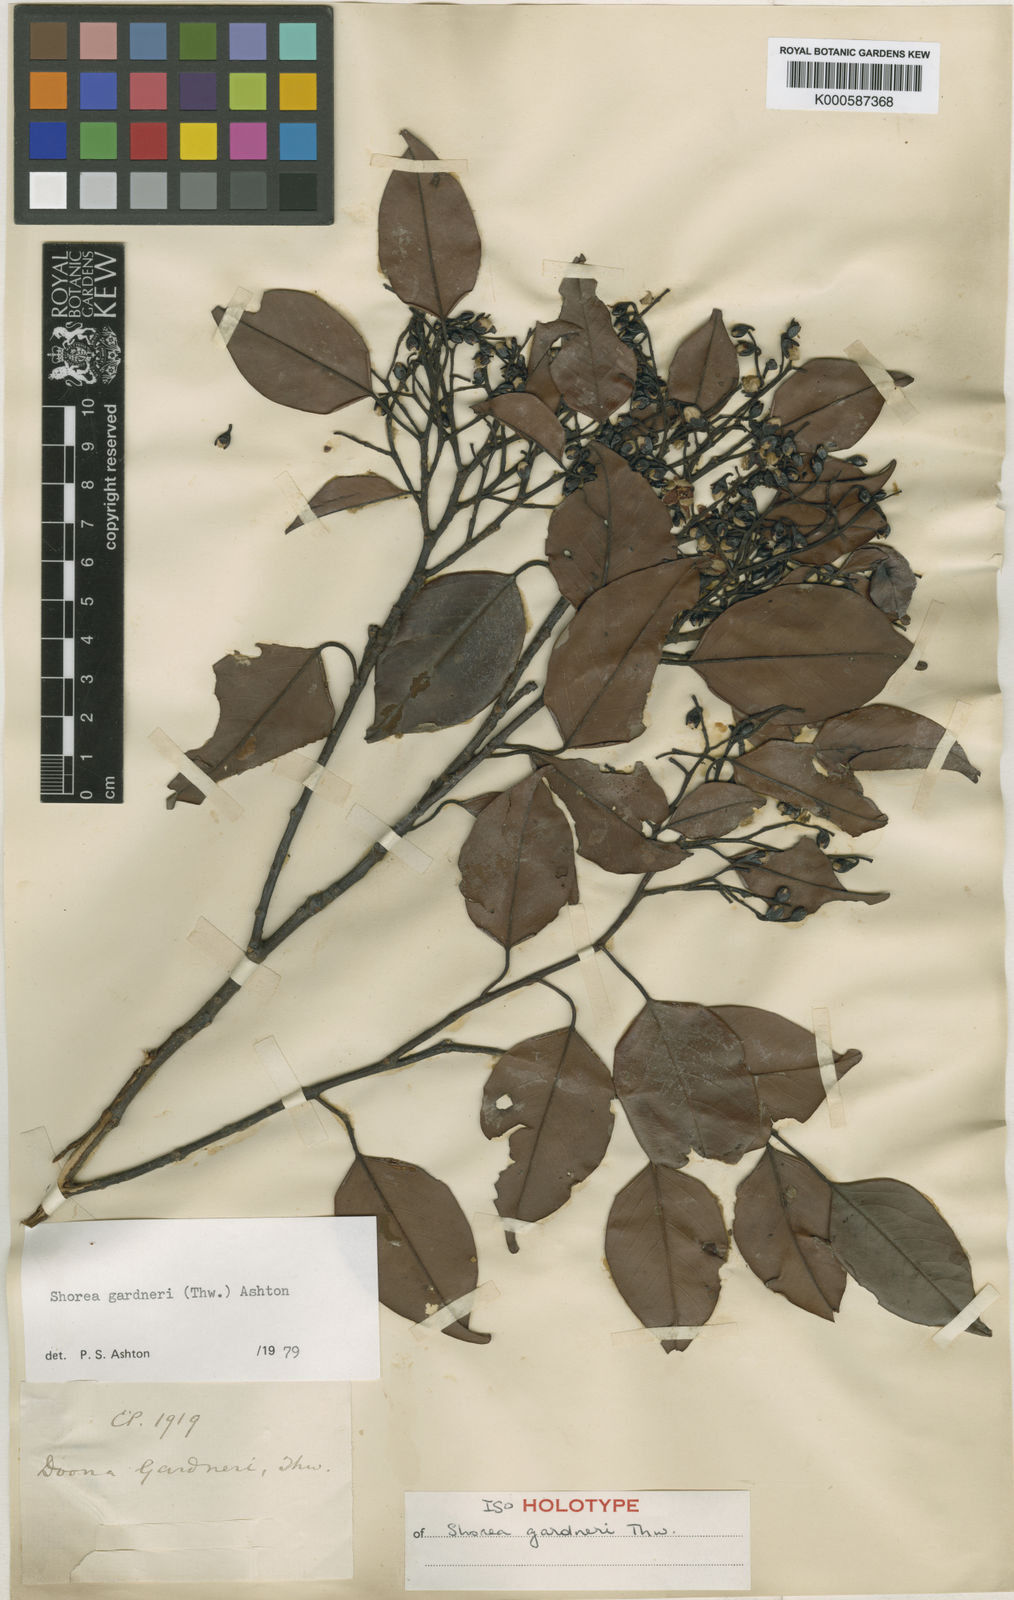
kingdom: Plantae
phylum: Tracheophyta
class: Magnoliopsida
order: Malvales
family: Dipterocarpaceae
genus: Doona
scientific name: Doona gardneri
